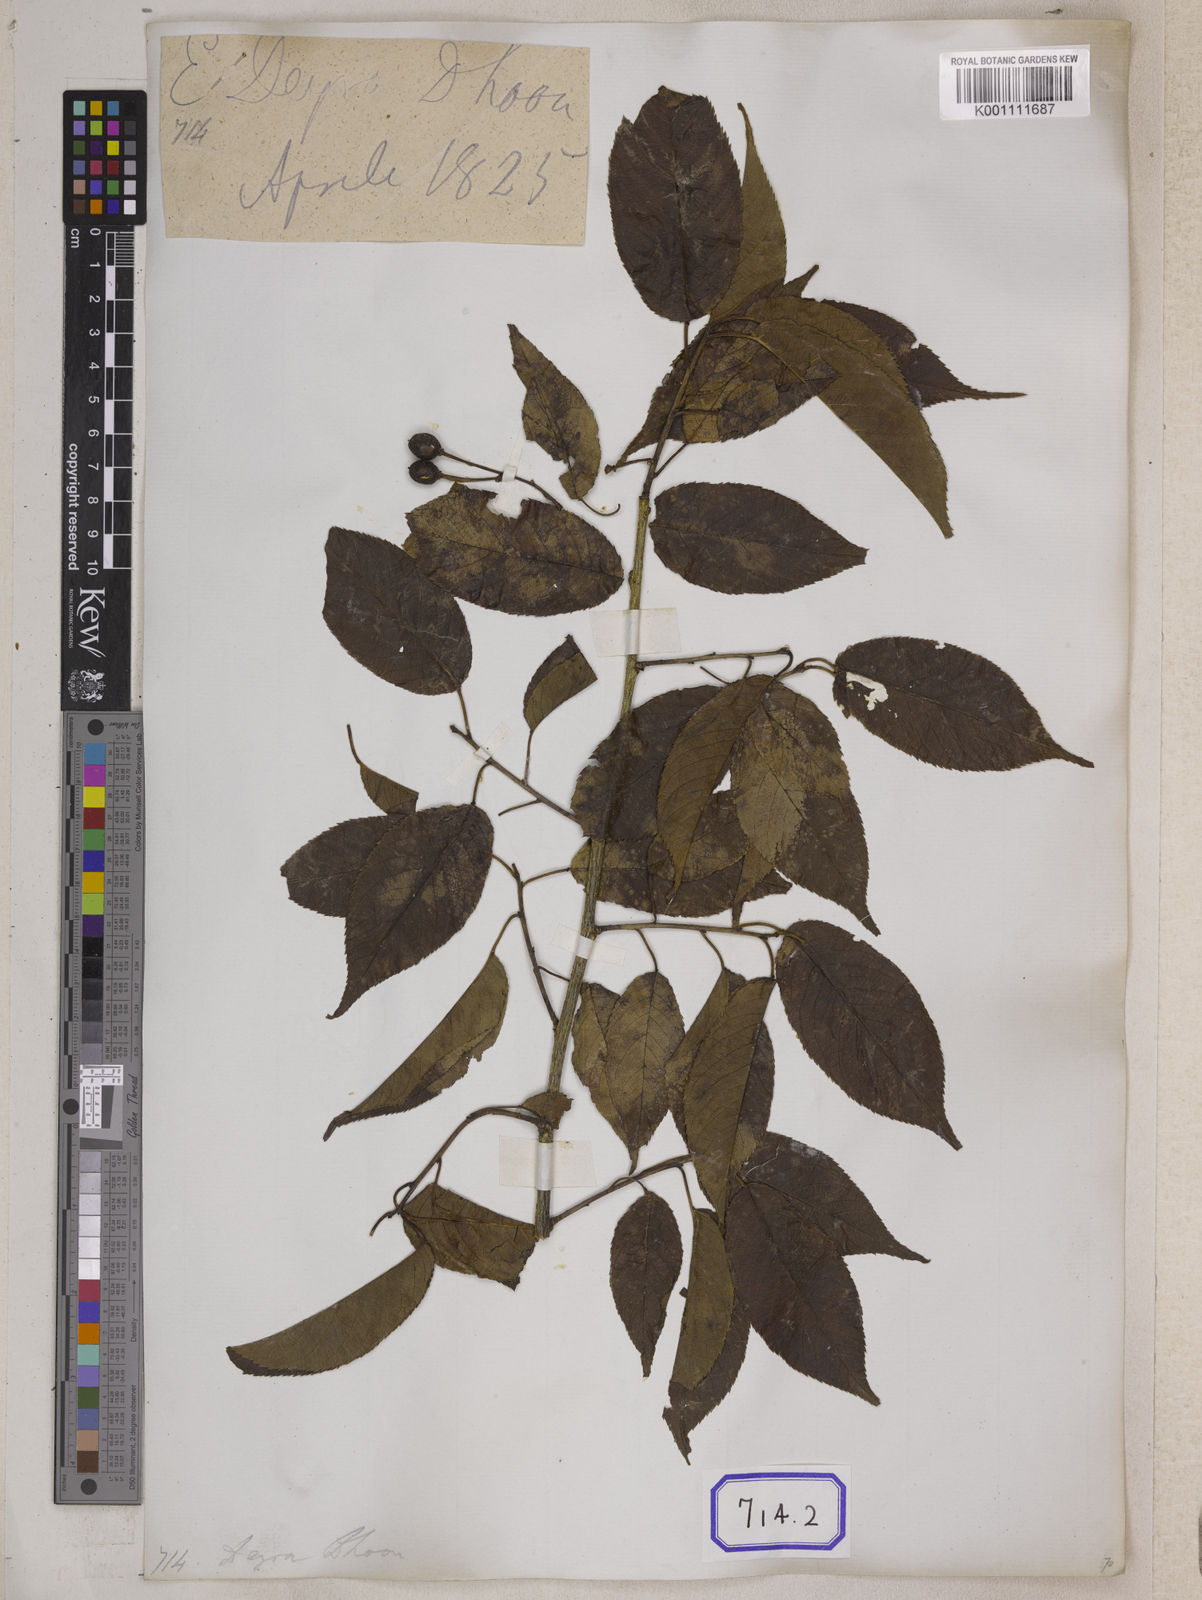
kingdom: Plantae
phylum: Tracheophyta
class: Magnoliopsida
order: Rosales
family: Rosaceae
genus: Prunus
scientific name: Prunus Cerasus myrtifolia
